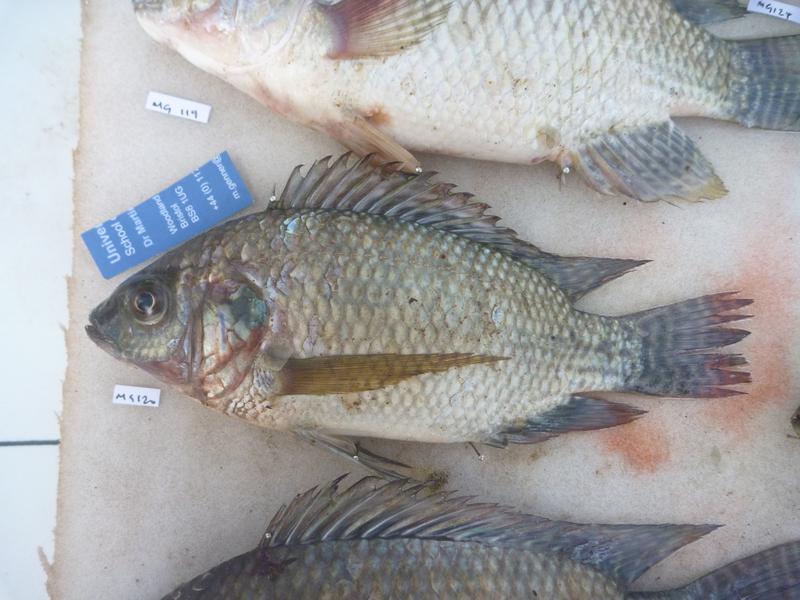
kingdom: Animalia
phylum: Chordata
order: Perciformes
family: Cichlidae
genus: Oreochromis
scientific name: Oreochromis niloticus
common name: Nile tilapia
